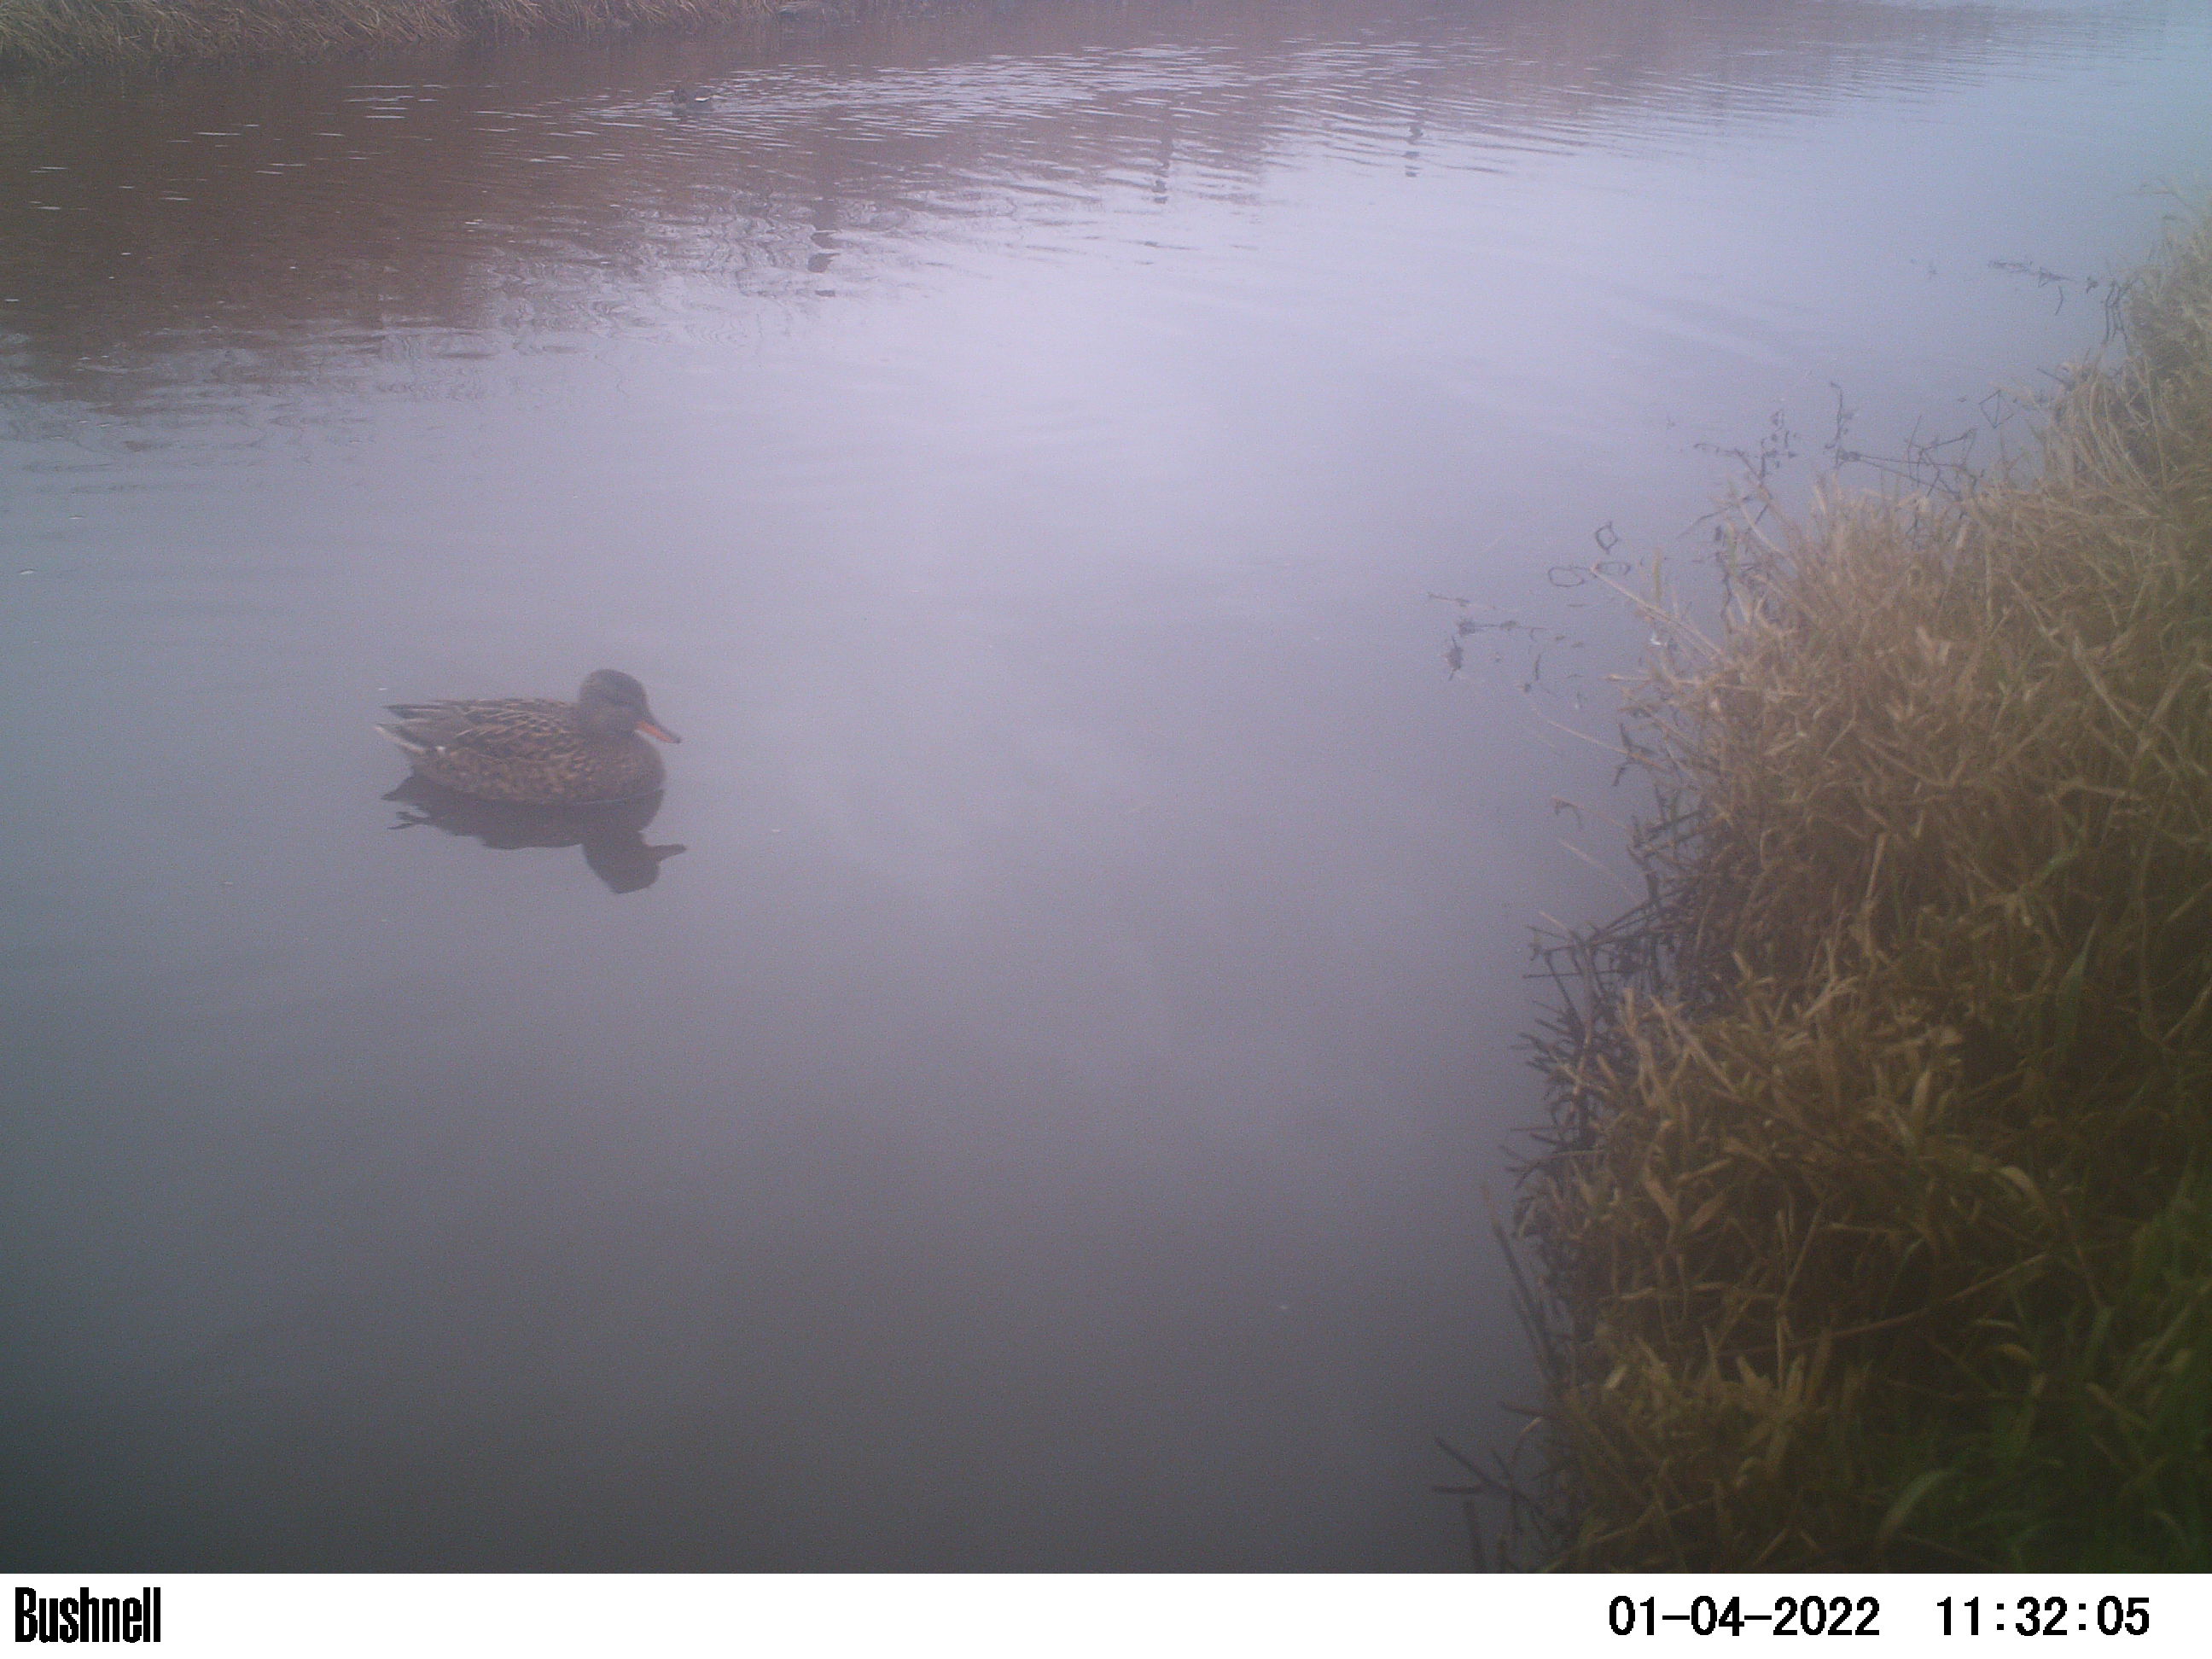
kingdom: Animalia
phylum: Chordata
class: Aves
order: Anseriformes
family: Anatidae
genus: Anas
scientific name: Anas
